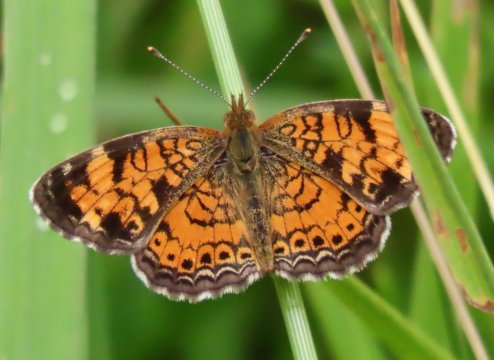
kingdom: Animalia
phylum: Arthropoda
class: Insecta
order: Lepidoptera
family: Nymphalidae
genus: Phyciodes
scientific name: Phyciodes tharos
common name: Pearl Crescent
